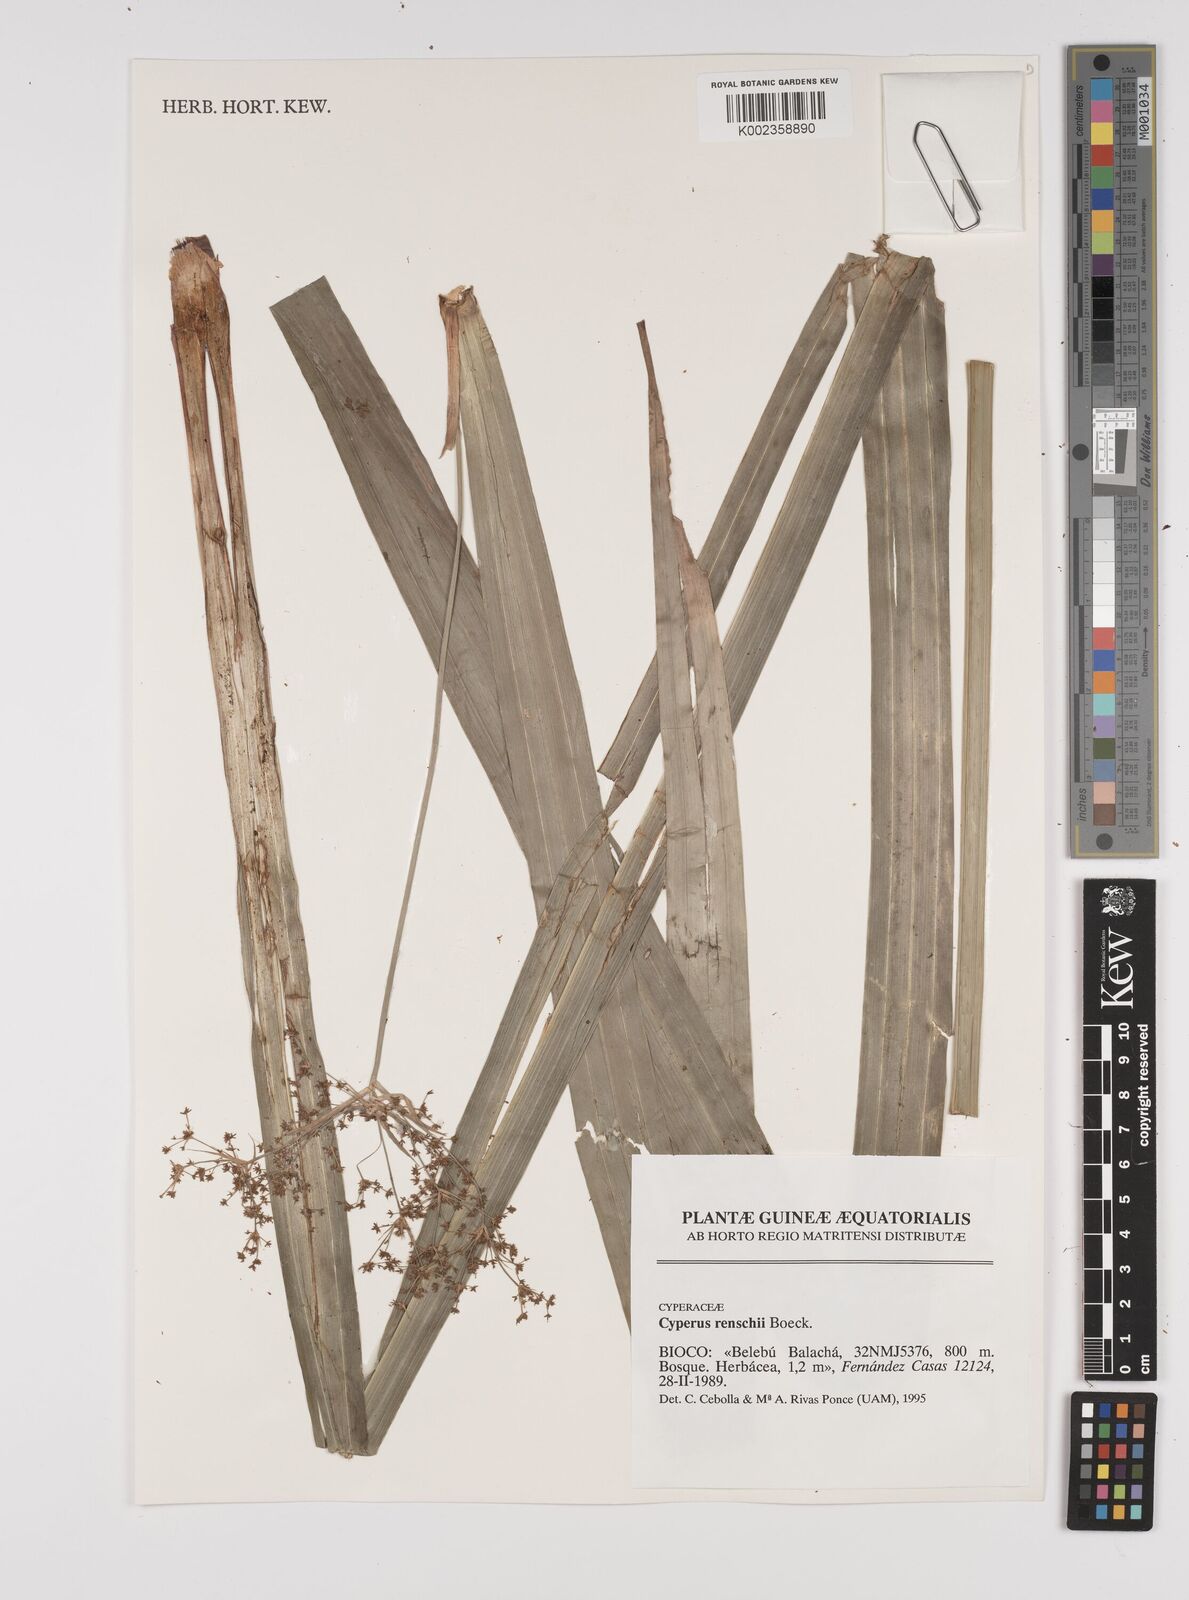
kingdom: Plantae
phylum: Tracheophyta
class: Liliopsida
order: Poales
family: Cyperaceae
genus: Cyperus
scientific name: Cyperus renschii
